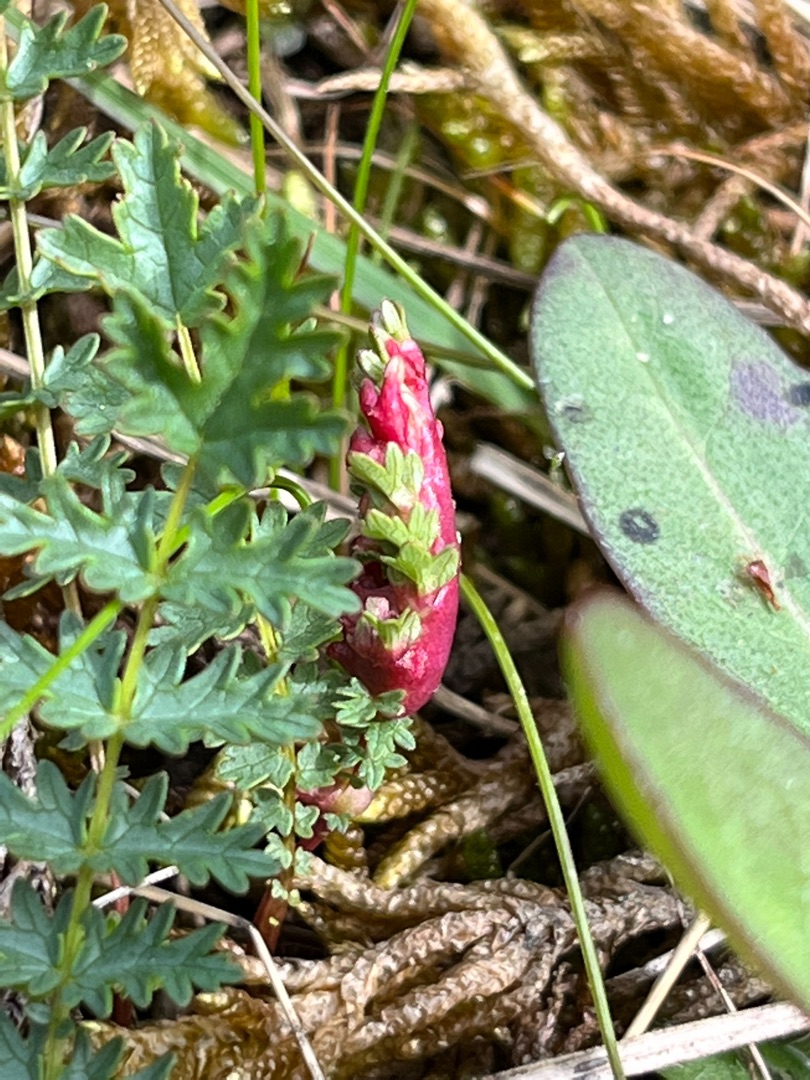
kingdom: Animalia
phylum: Arthropoda
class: Insecta
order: Diptera
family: Cecidomyiidae
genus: Dasineura
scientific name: Dasineura
